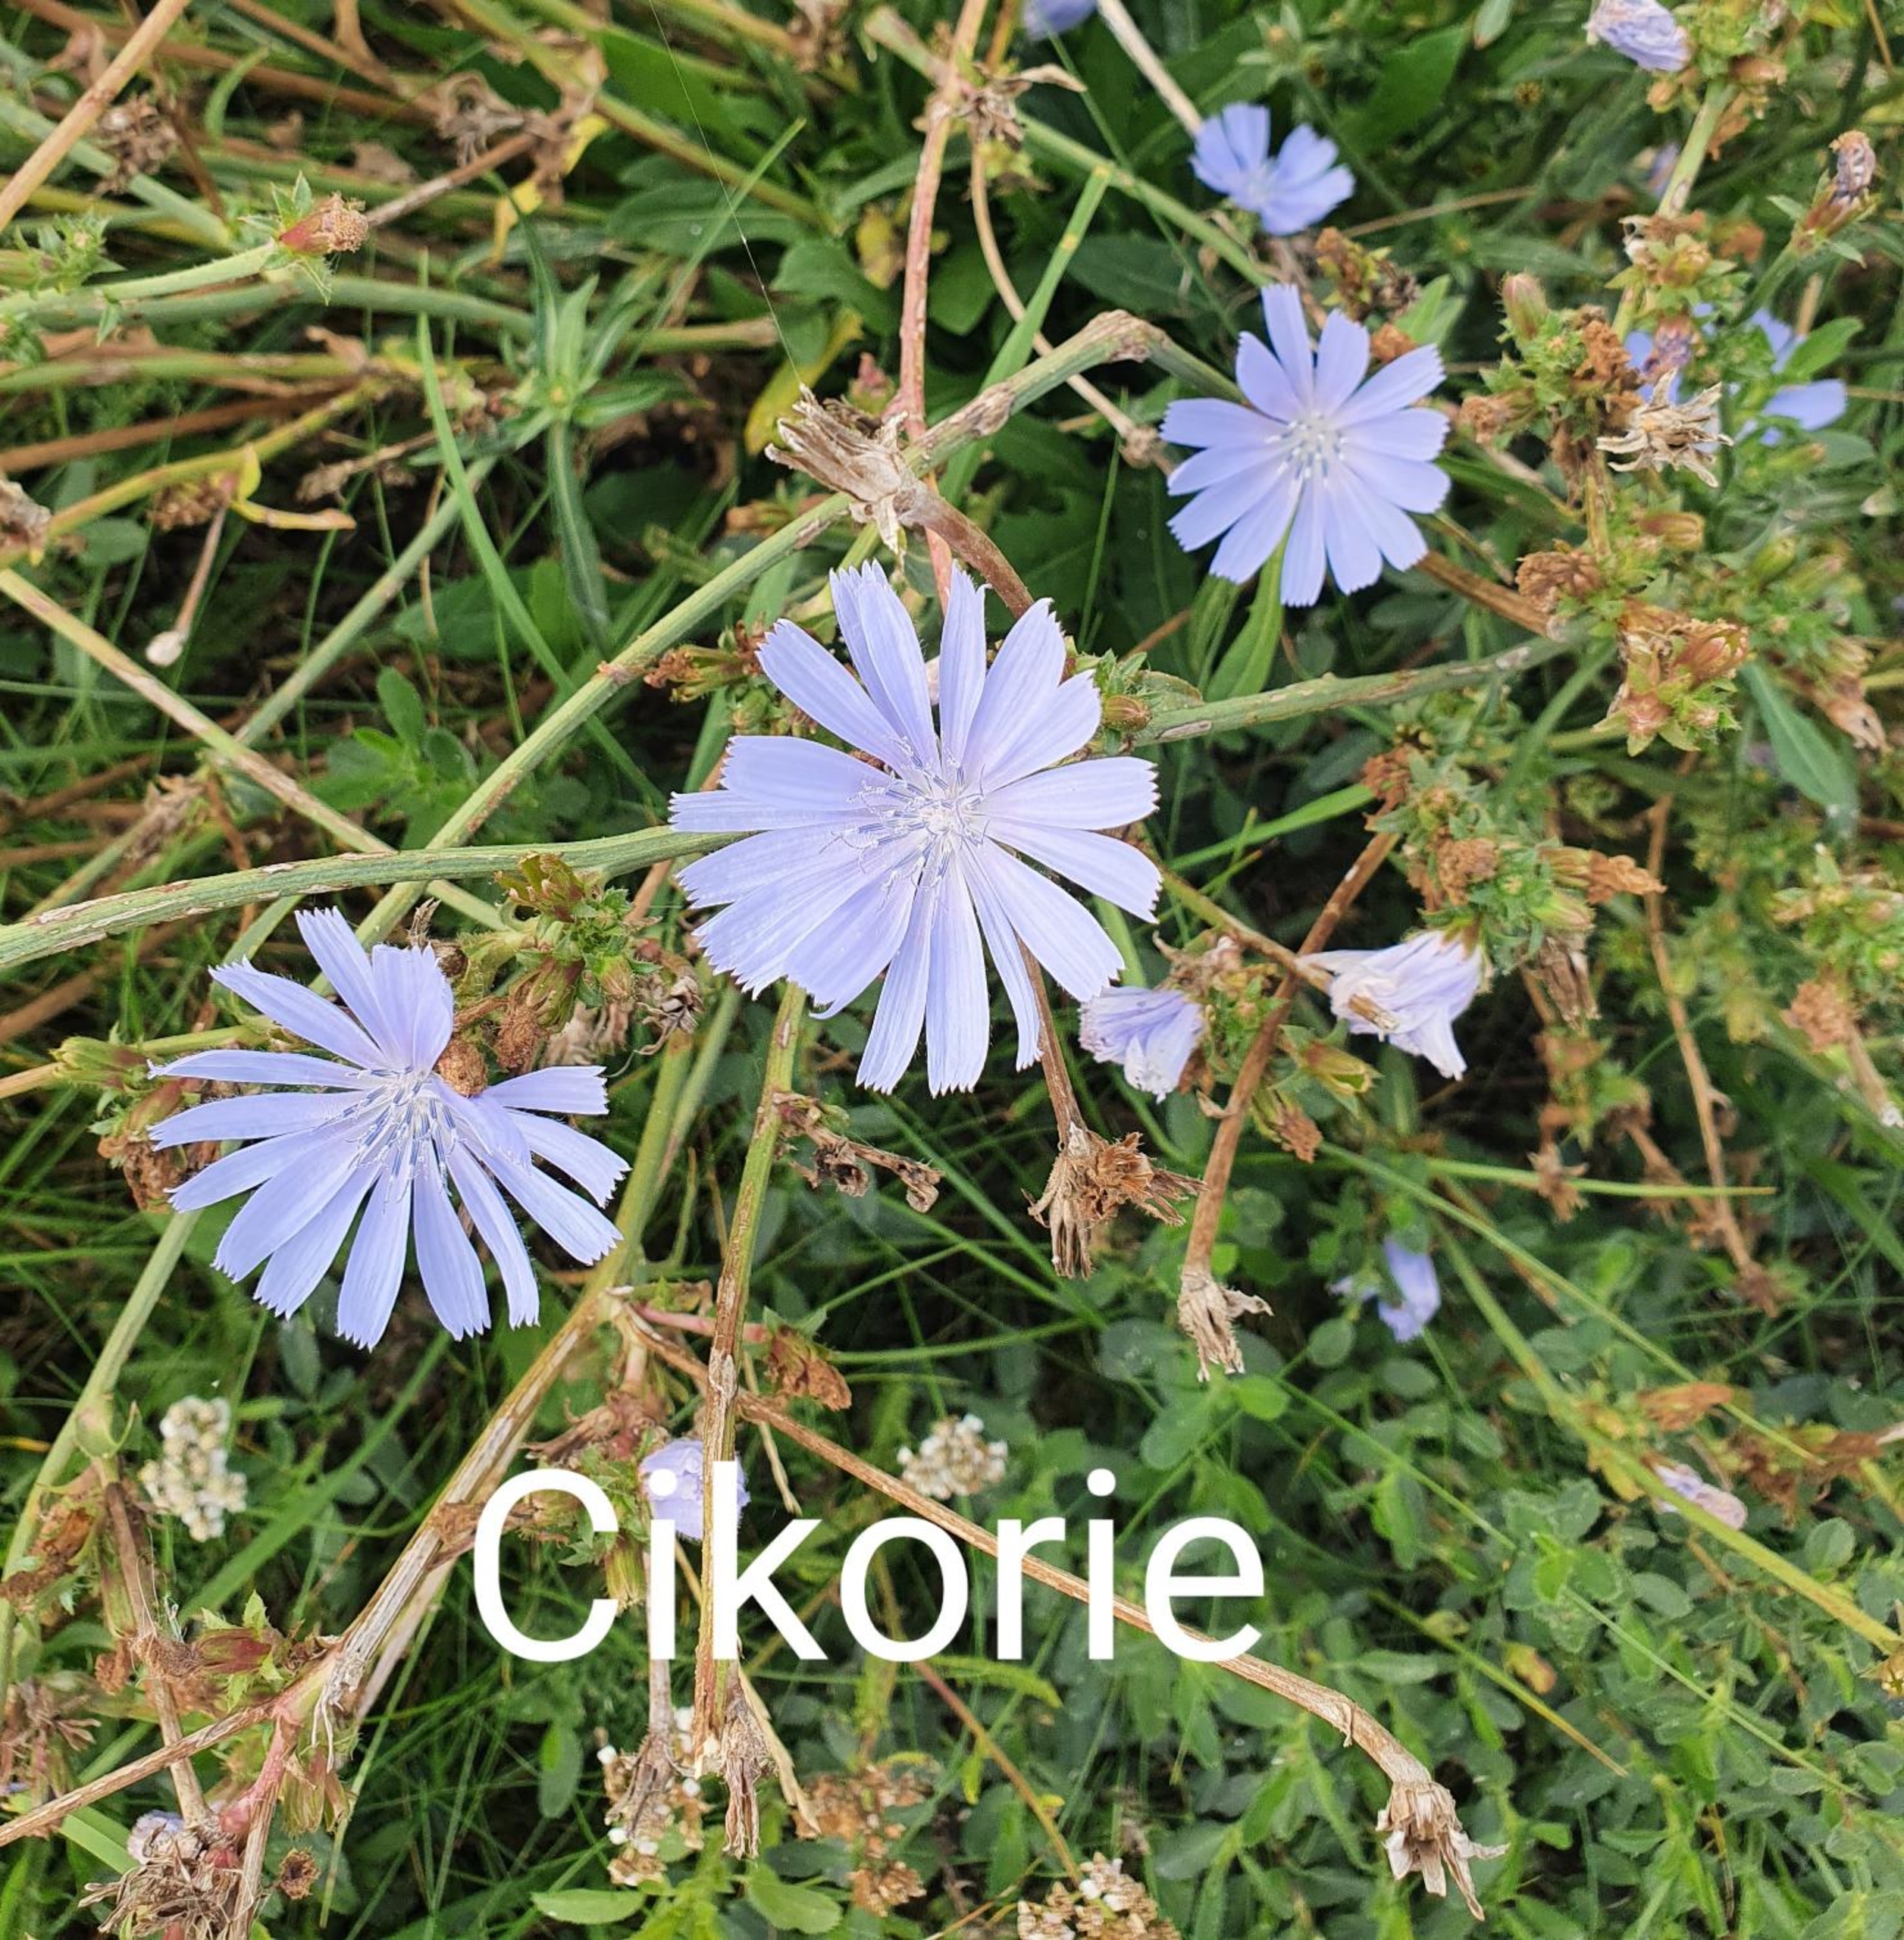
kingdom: Plantae
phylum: Tracheophyta
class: Magnoliopsida
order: Asterales
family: Asteraceae
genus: Cichorium
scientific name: Cichorium intybus
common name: Cikorie
